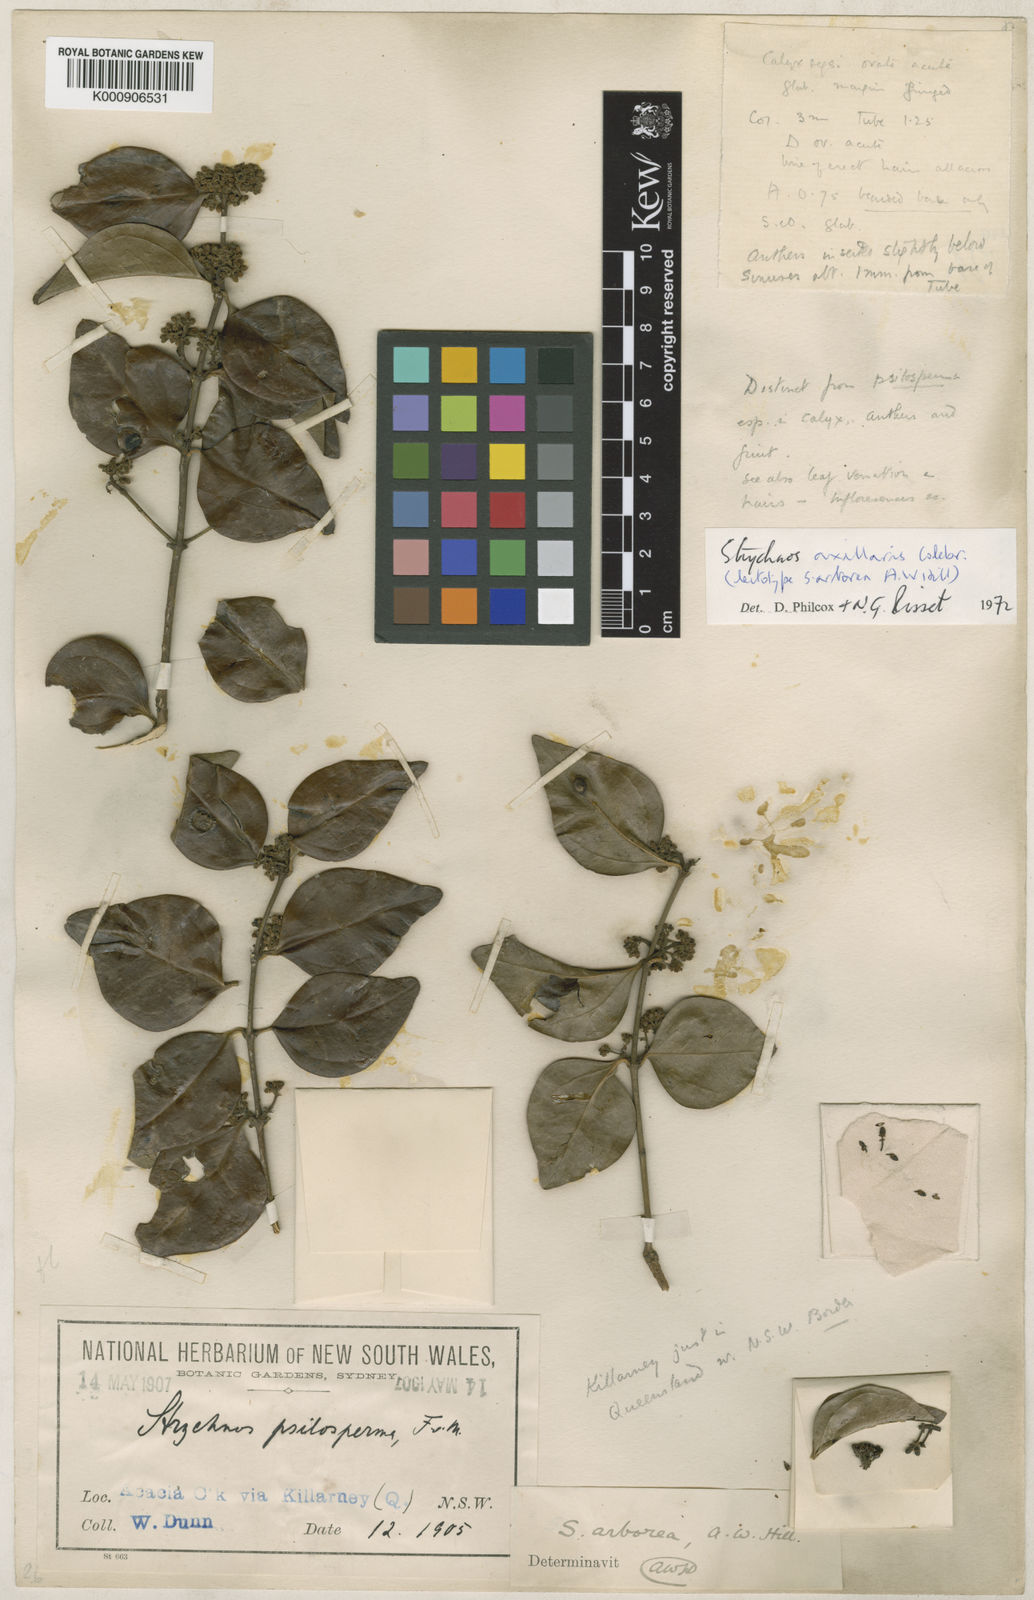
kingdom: Plantae
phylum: Tracheophyta
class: Magnoliopsida
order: Gentianales
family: Loganiaceae
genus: Strychnos
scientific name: Strychnos axillaris
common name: Strychninebush
